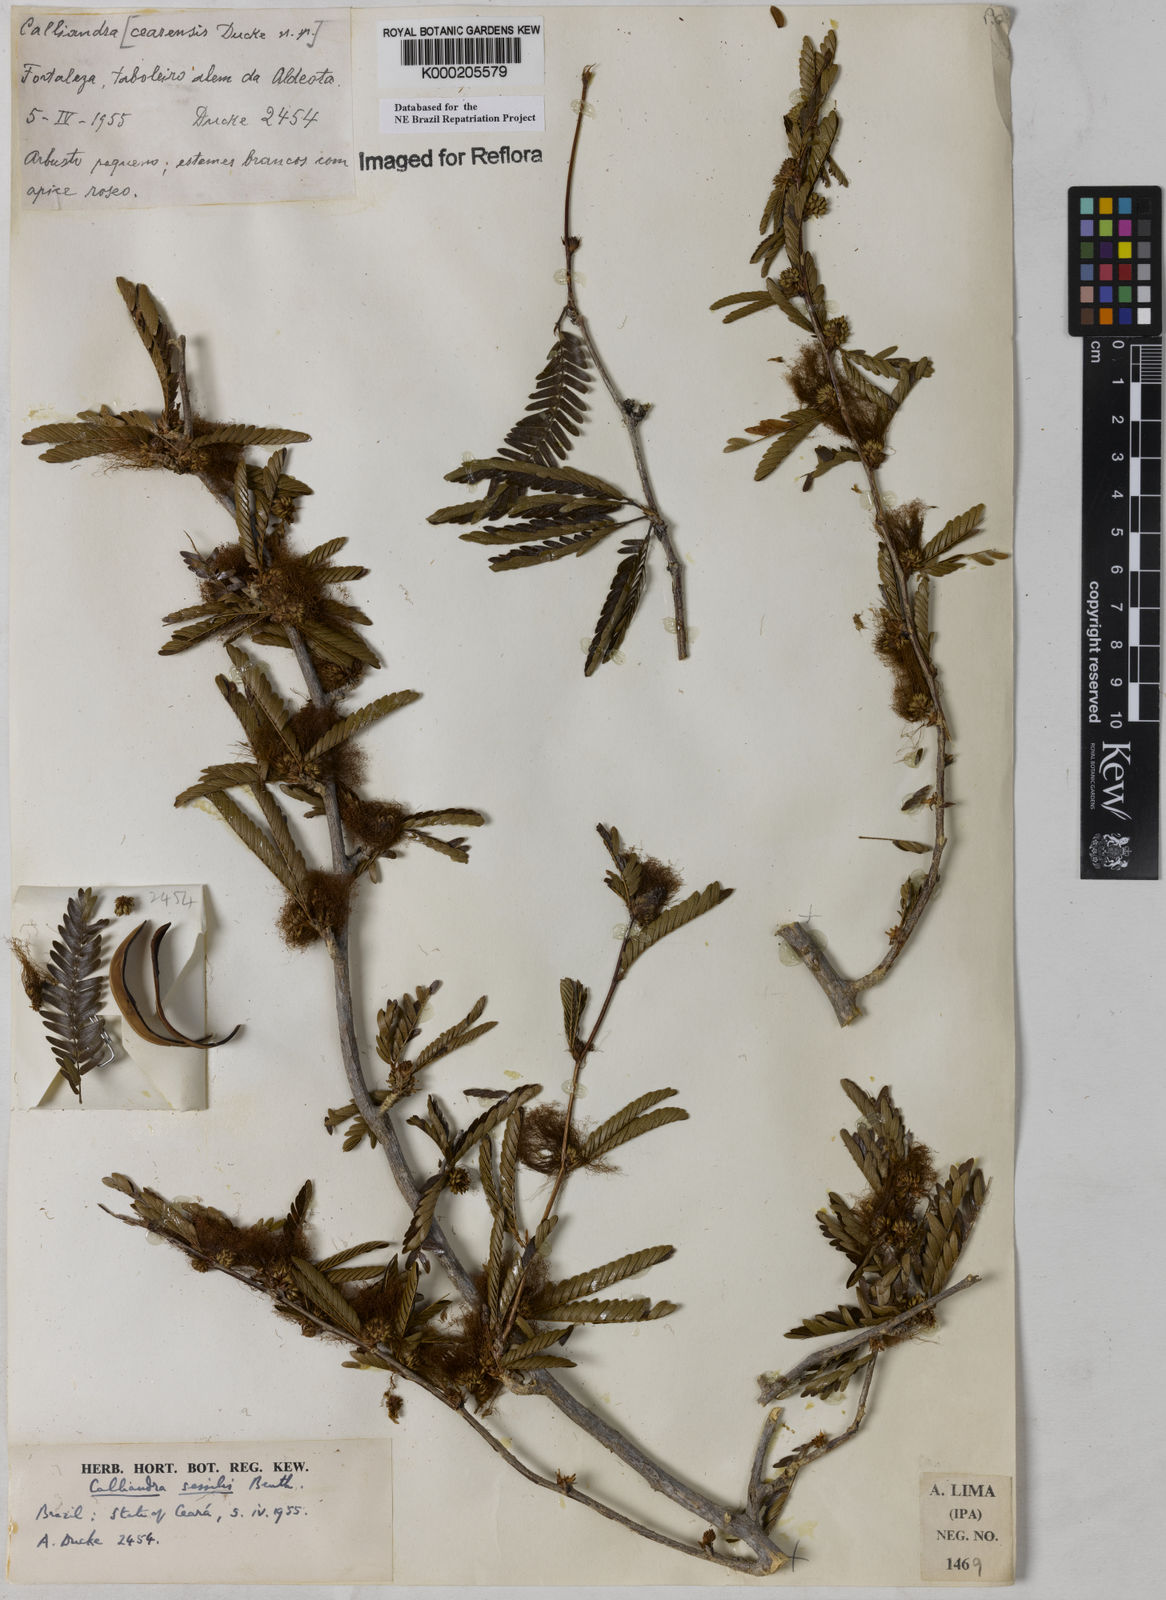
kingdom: Plantae
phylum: Tracheophyta
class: Magnoliopsida
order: Fabales
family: Fabaceae
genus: Calliandra
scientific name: Calliandra sessilis
